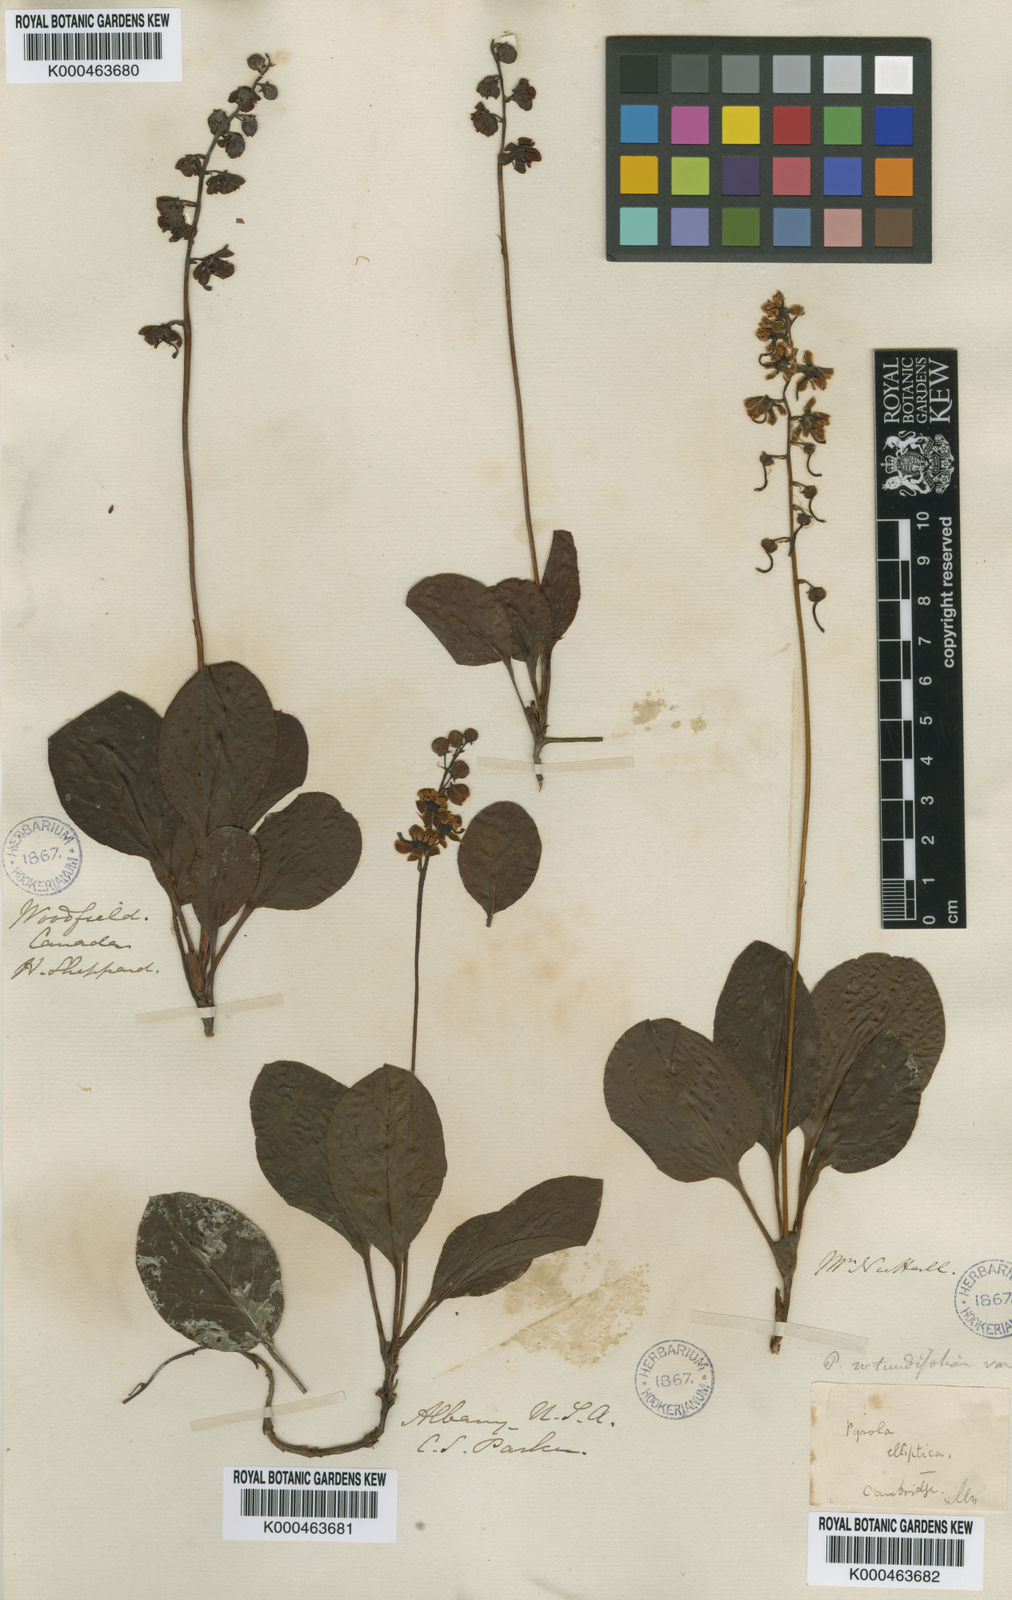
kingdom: Plantae
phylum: Tracheophyta
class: Magnoliopsida
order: Ericales
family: Ericaceae
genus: Pyrola
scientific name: Pyrola elliptica
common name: Shinleaf
